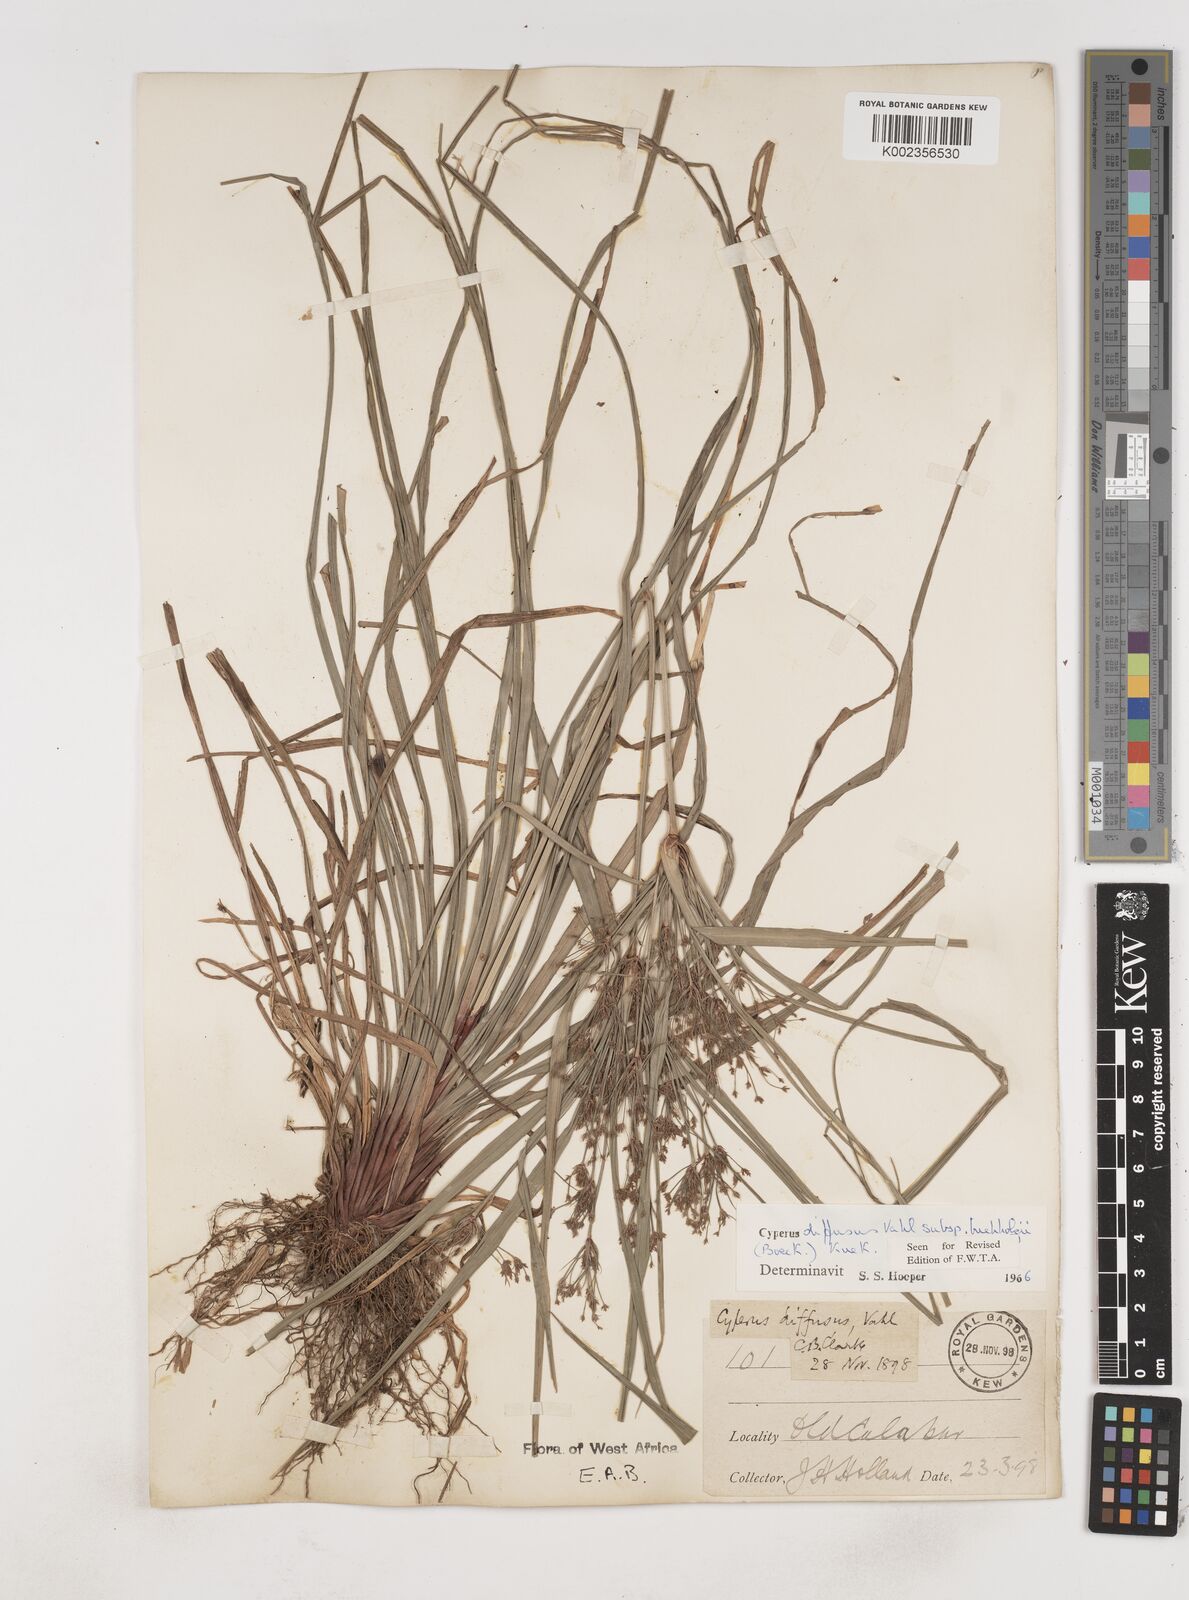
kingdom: Plantae
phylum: Tracheophyta
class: Liliopsida
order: Poales
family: Cyperaceae
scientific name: Cyperaceae
